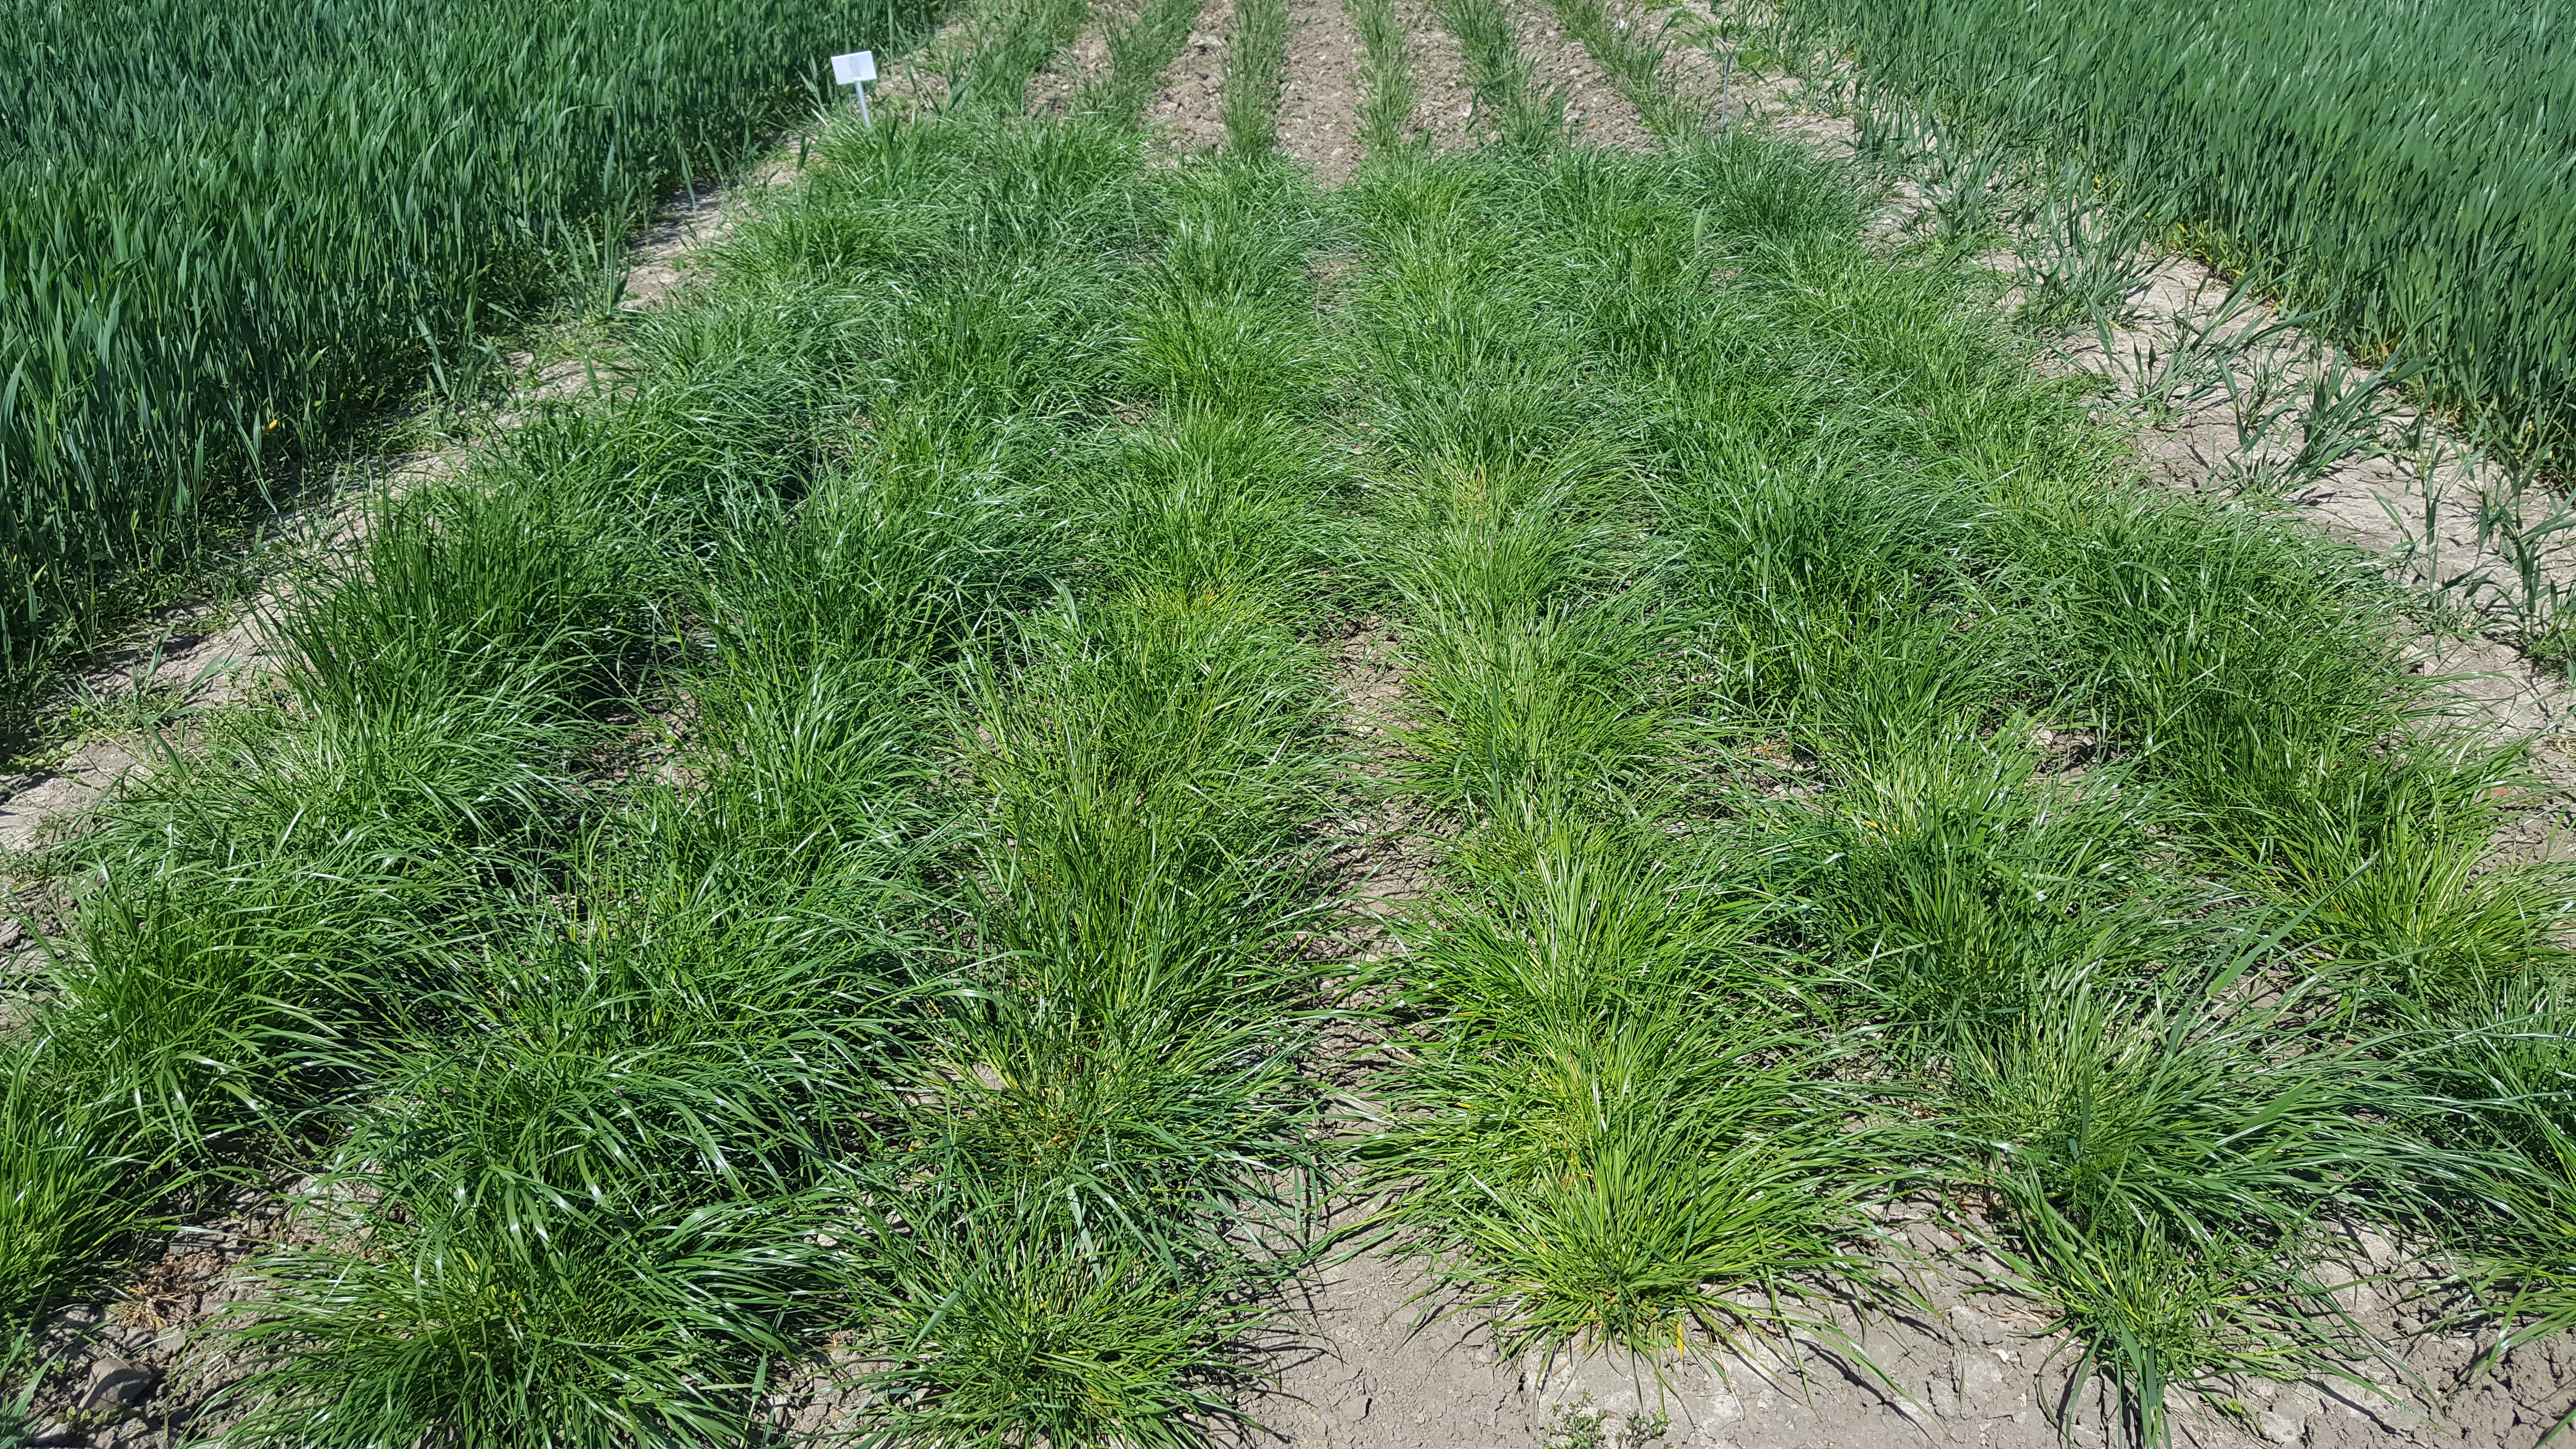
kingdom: Plantae
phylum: Tracheophyta
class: Liliopsida
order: Poales
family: Poaceae
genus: Lolium
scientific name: Lolium perenne
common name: Perennial ryegrass
